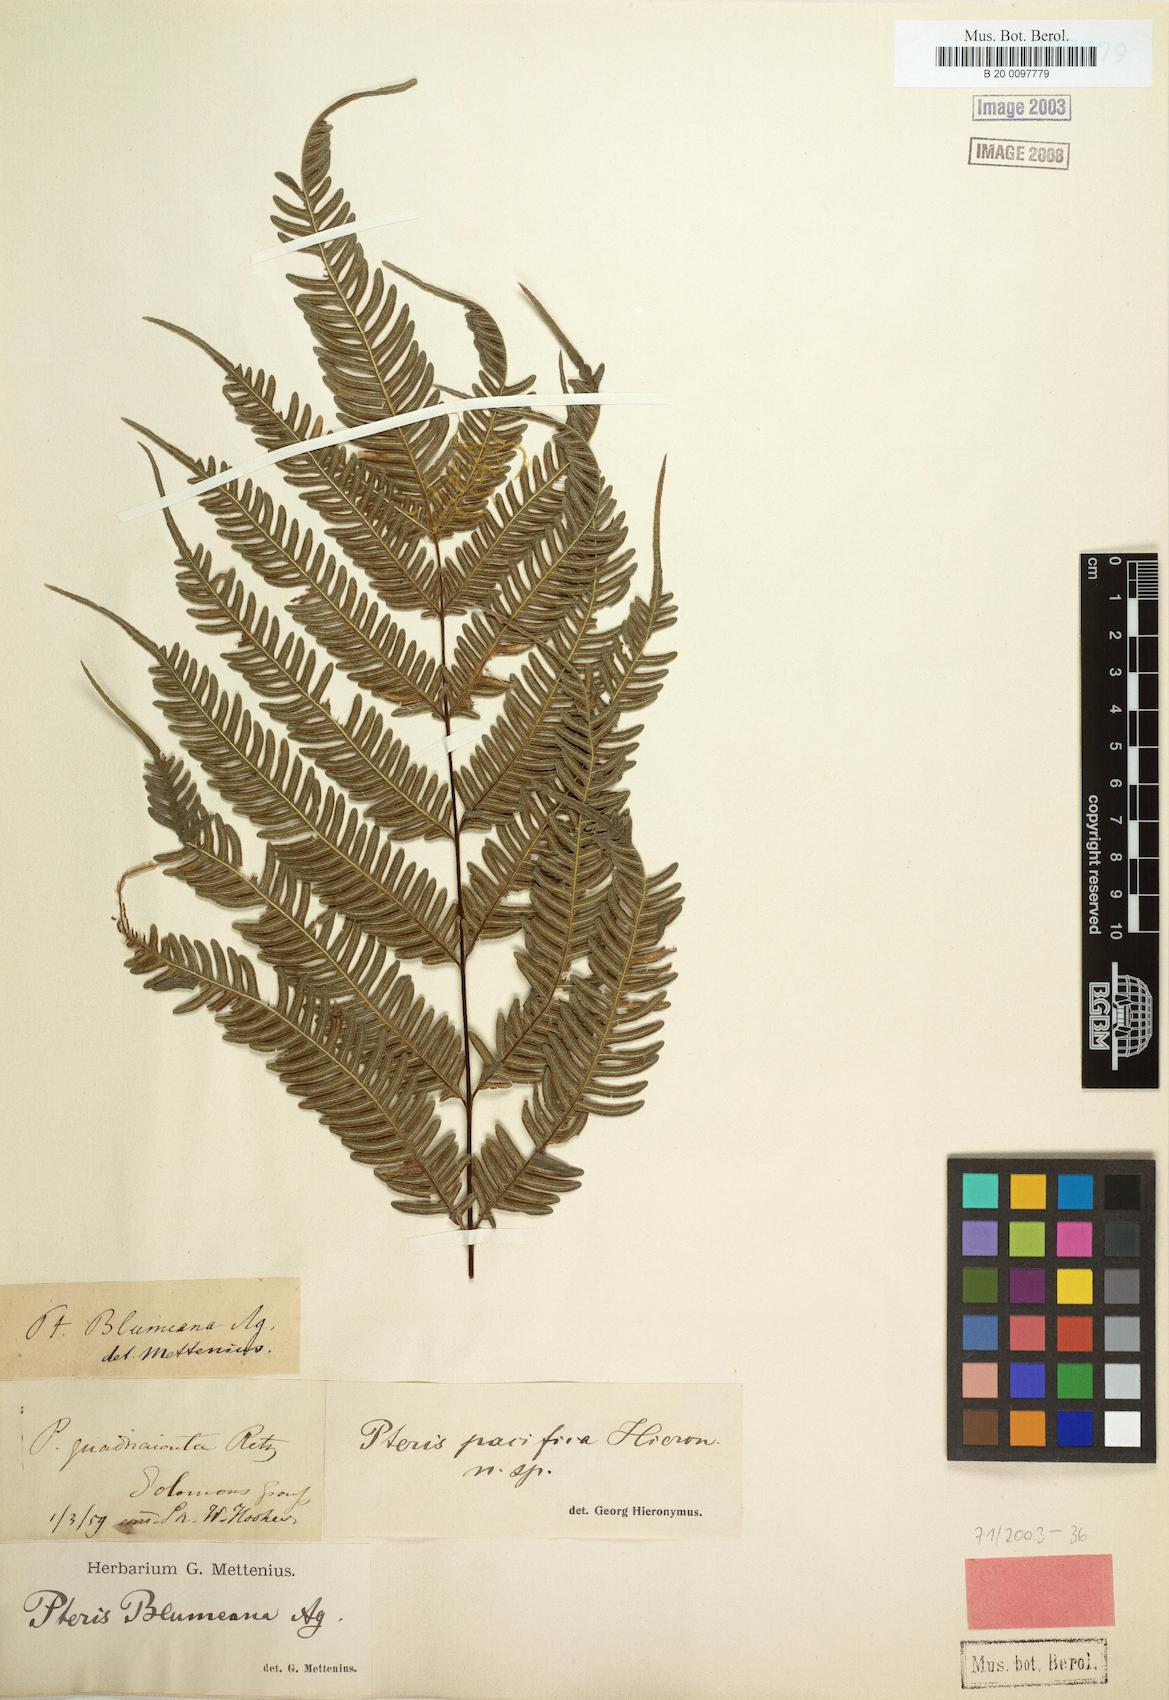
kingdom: Plantae
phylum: Tracheophyta
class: Polypodiopsida
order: Polypodiales
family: Pteridaceae
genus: Pteris
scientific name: Pteris biaurita
